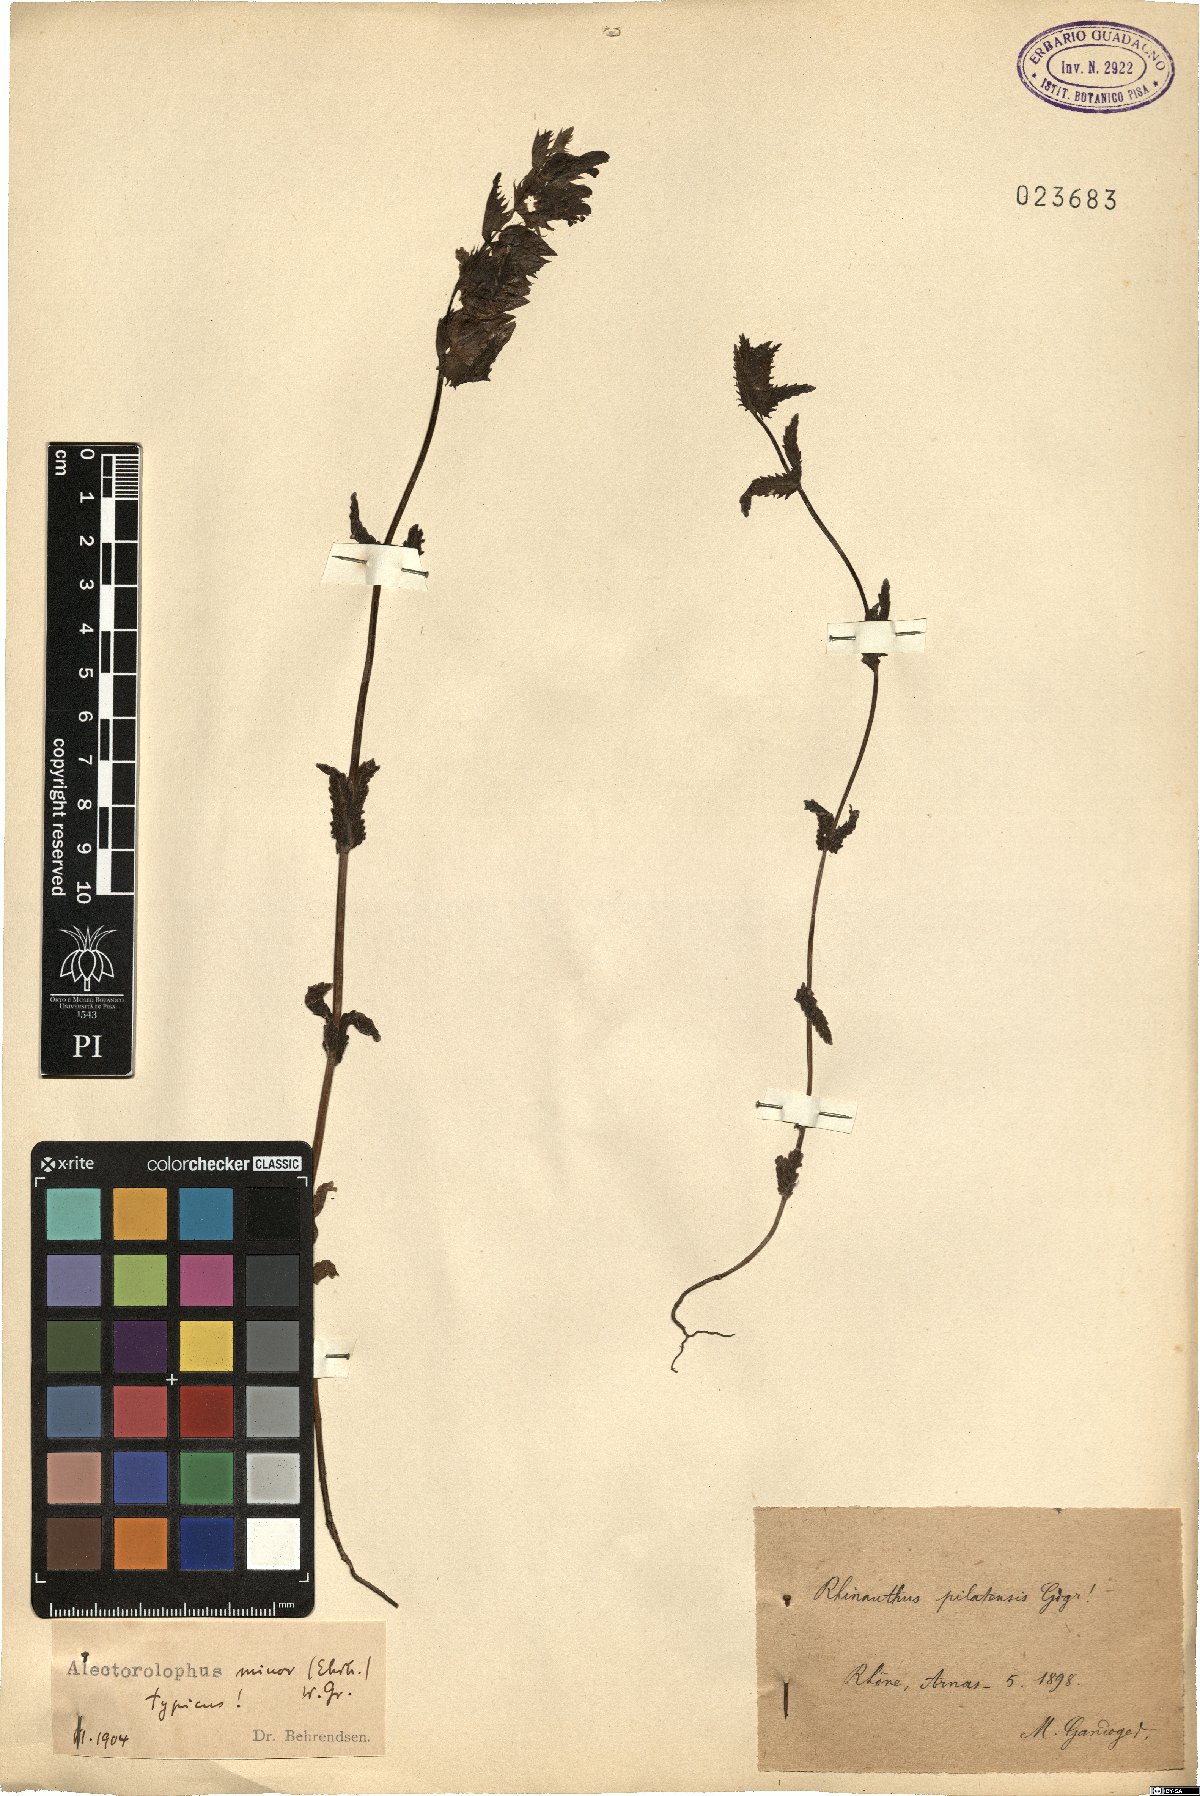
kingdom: Plantae
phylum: Tracheophyta
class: Magnoliopsida
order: Lamiales
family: Orobanchaceae
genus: Rhinanthus
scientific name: Rhinanthus minor
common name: Yellow-rattle
